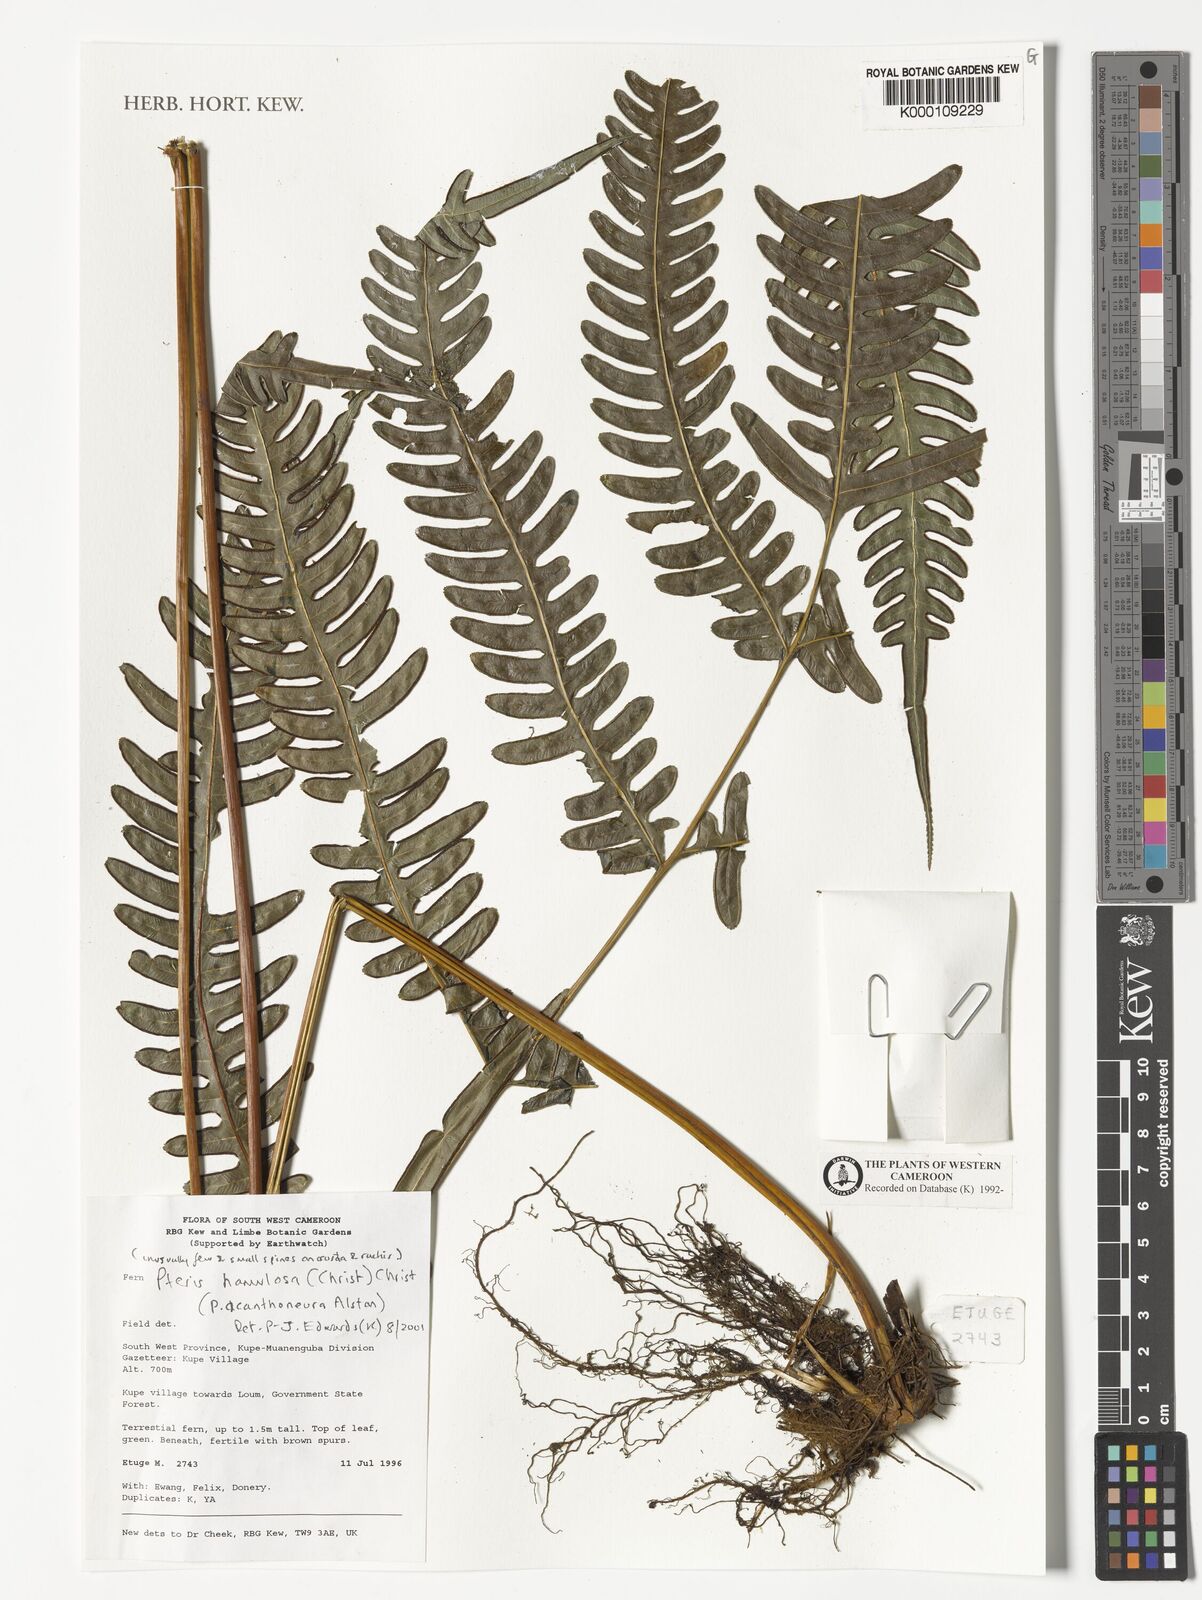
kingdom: Plantae
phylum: Tracheophyta
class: Polypodiopsida
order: Polypodiales
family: Pteridaceae
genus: Pteris
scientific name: Pteris hamulosa
